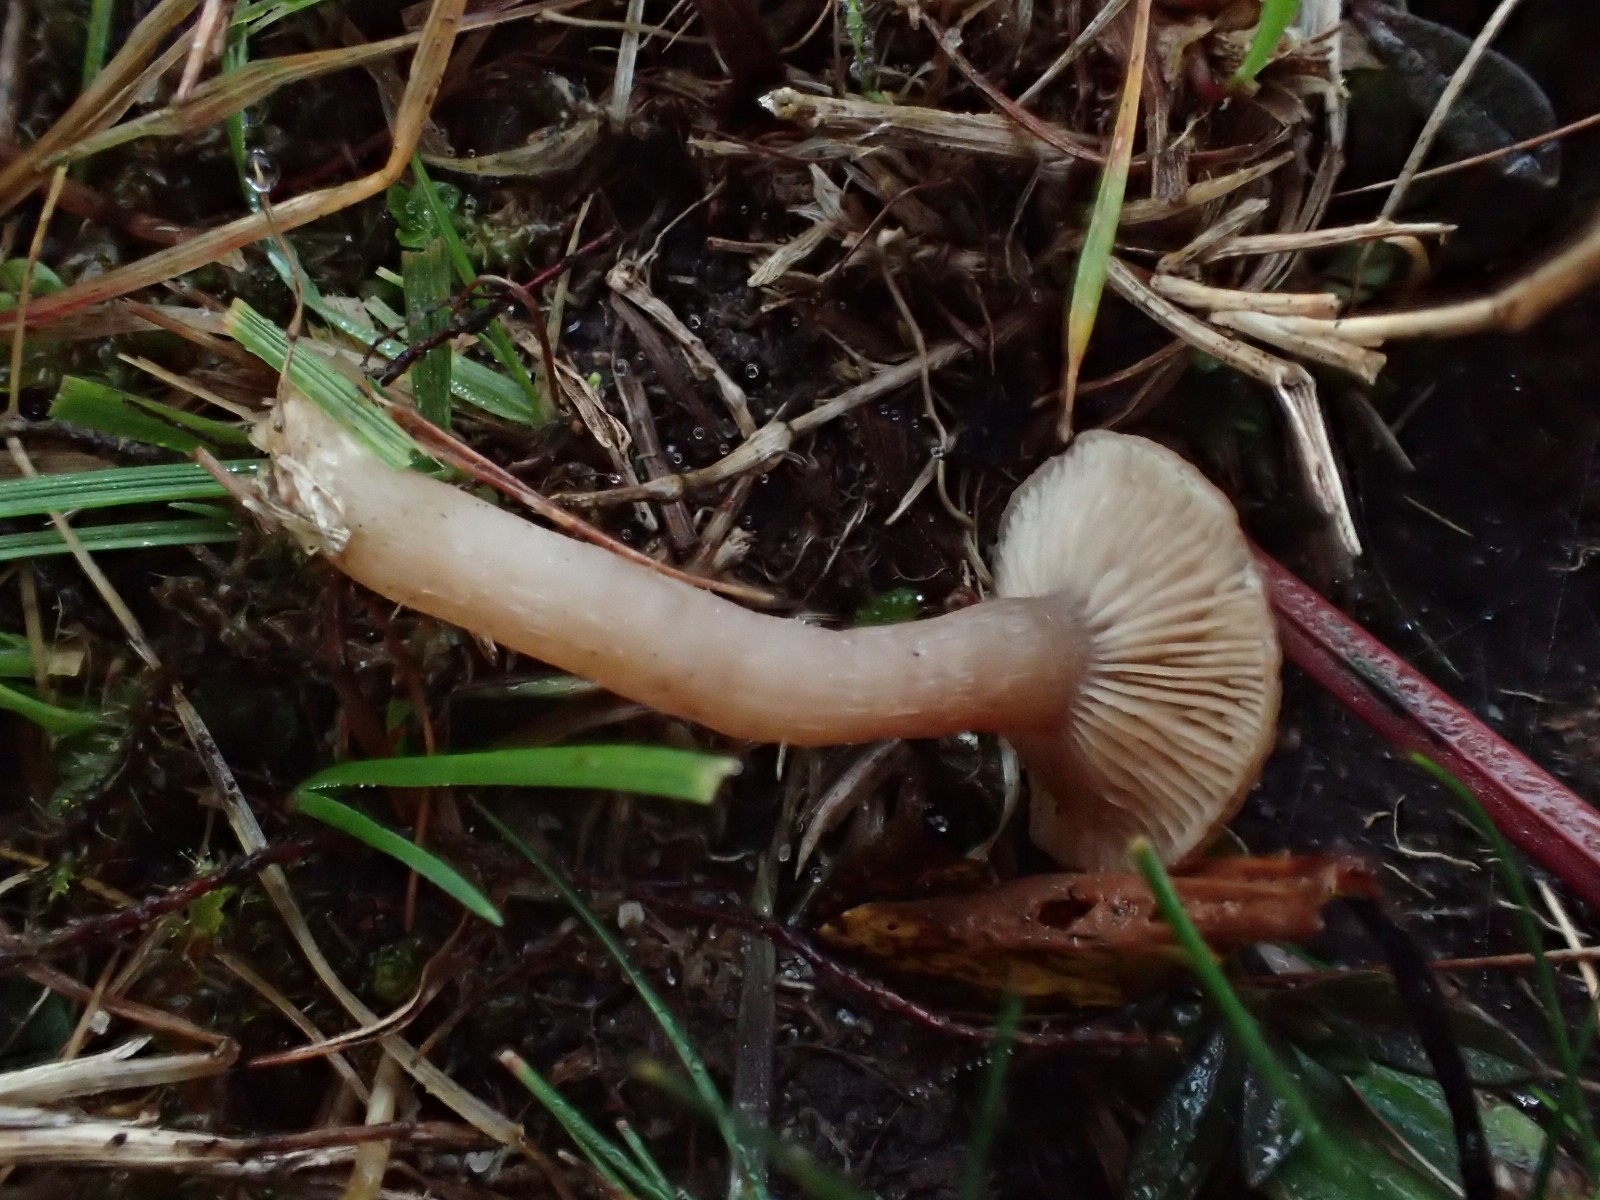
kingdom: Fungi
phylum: Basidiomycota
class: Agaricomycetes
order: Agaricales
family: Tricholomataceae
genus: Clitocybe
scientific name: Clitocybe
